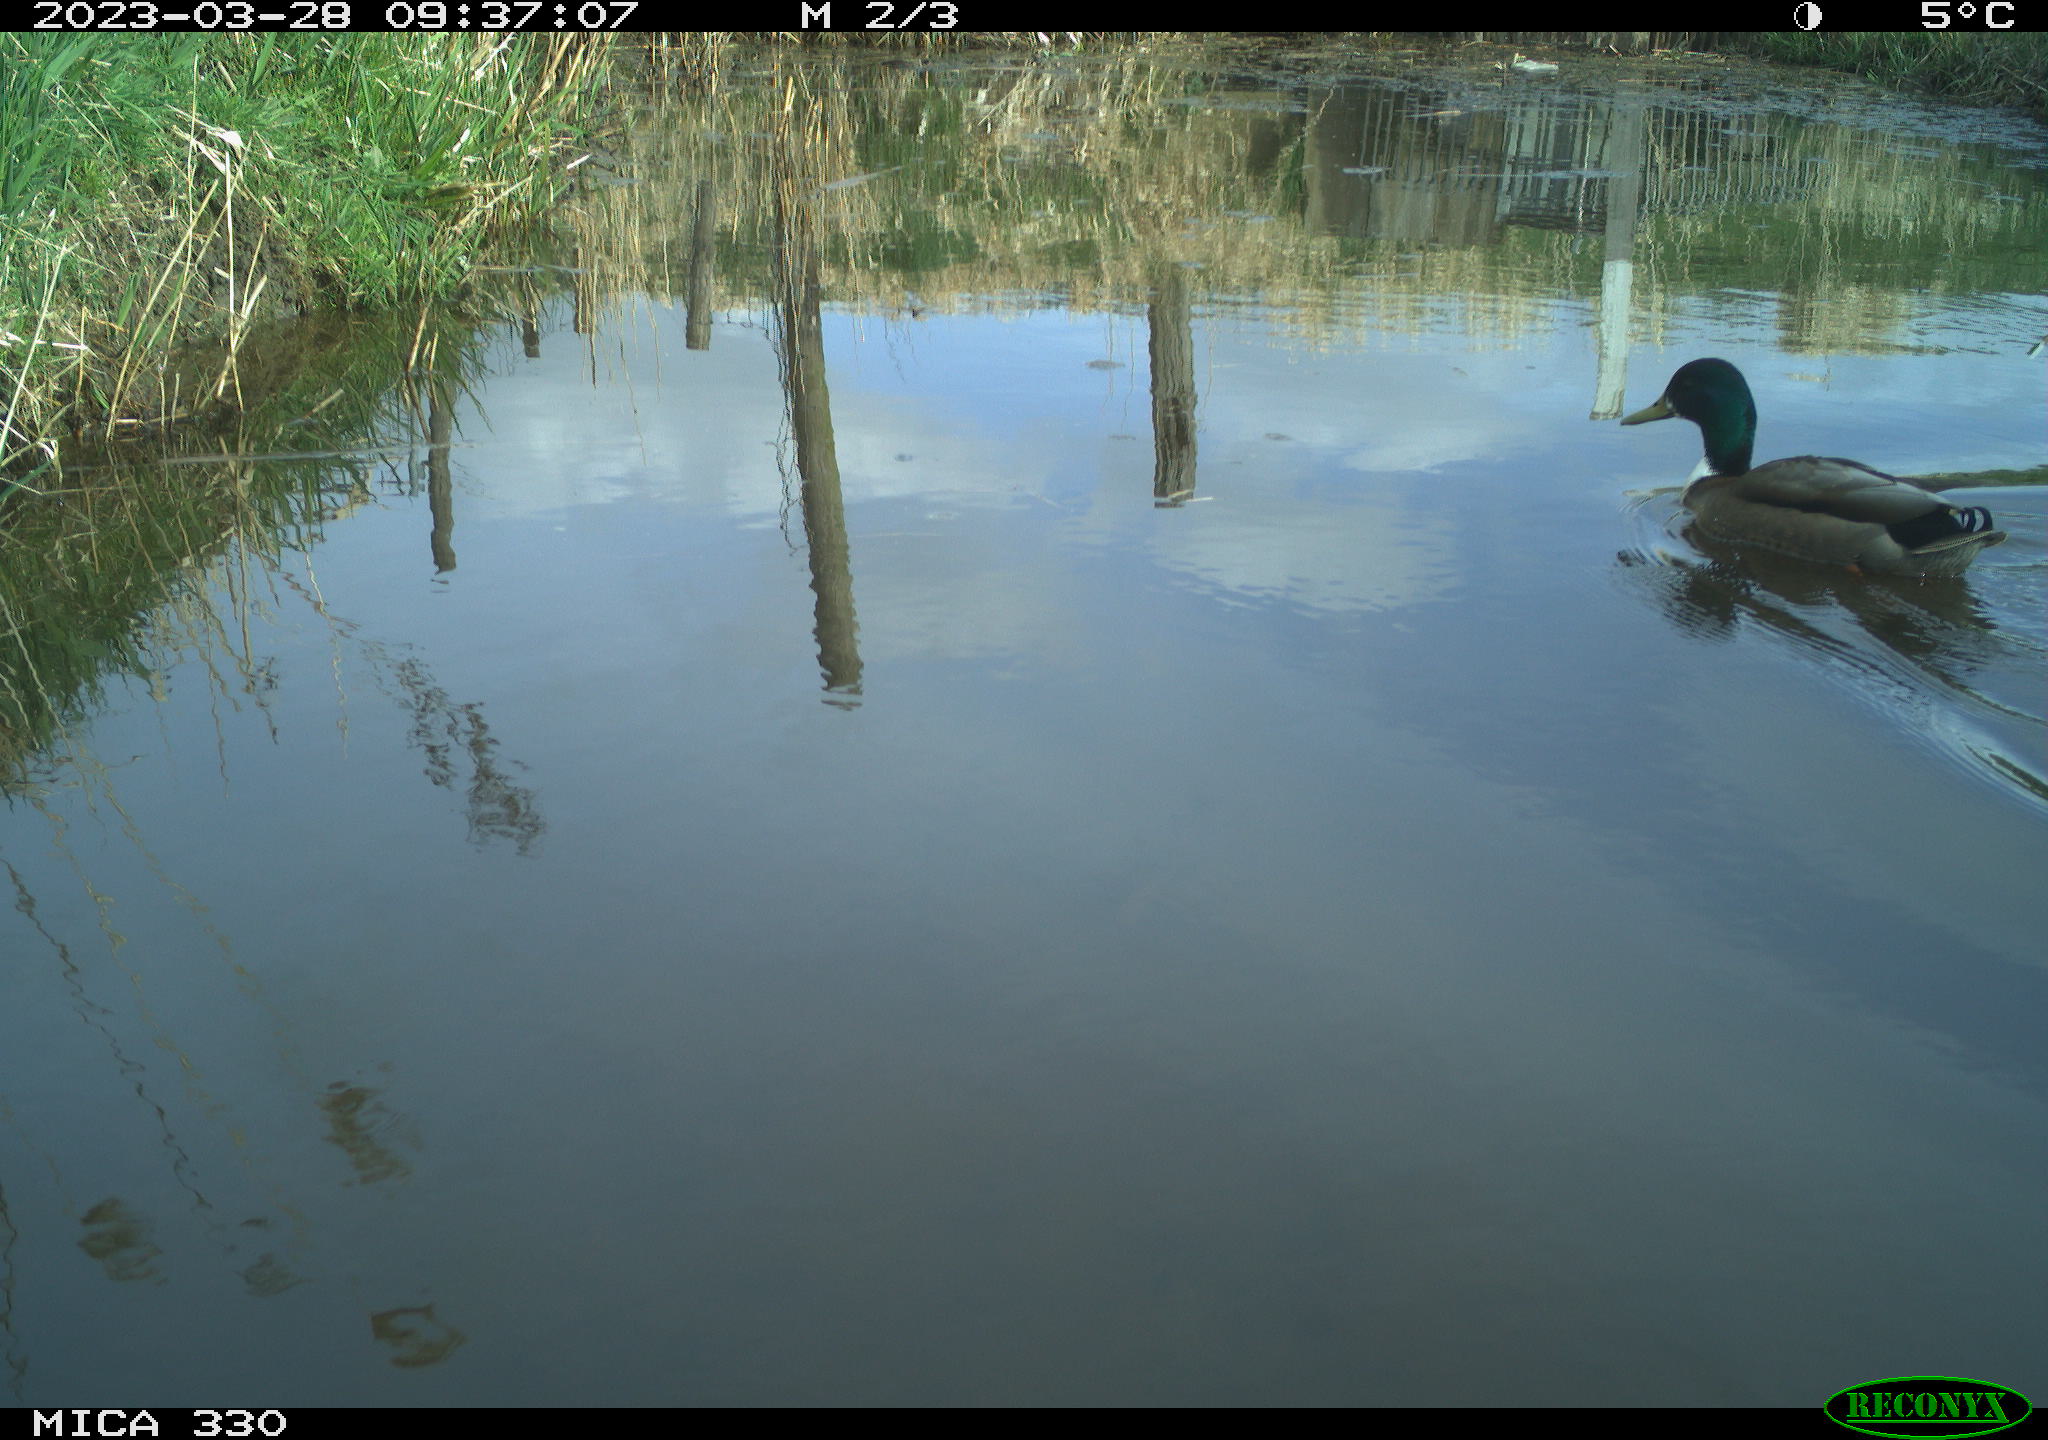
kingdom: Animalia
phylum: Chordata
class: Aves
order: Anseriformes
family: Anatidae
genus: Anas
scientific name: Anas platyrhynchos
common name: Mallard
